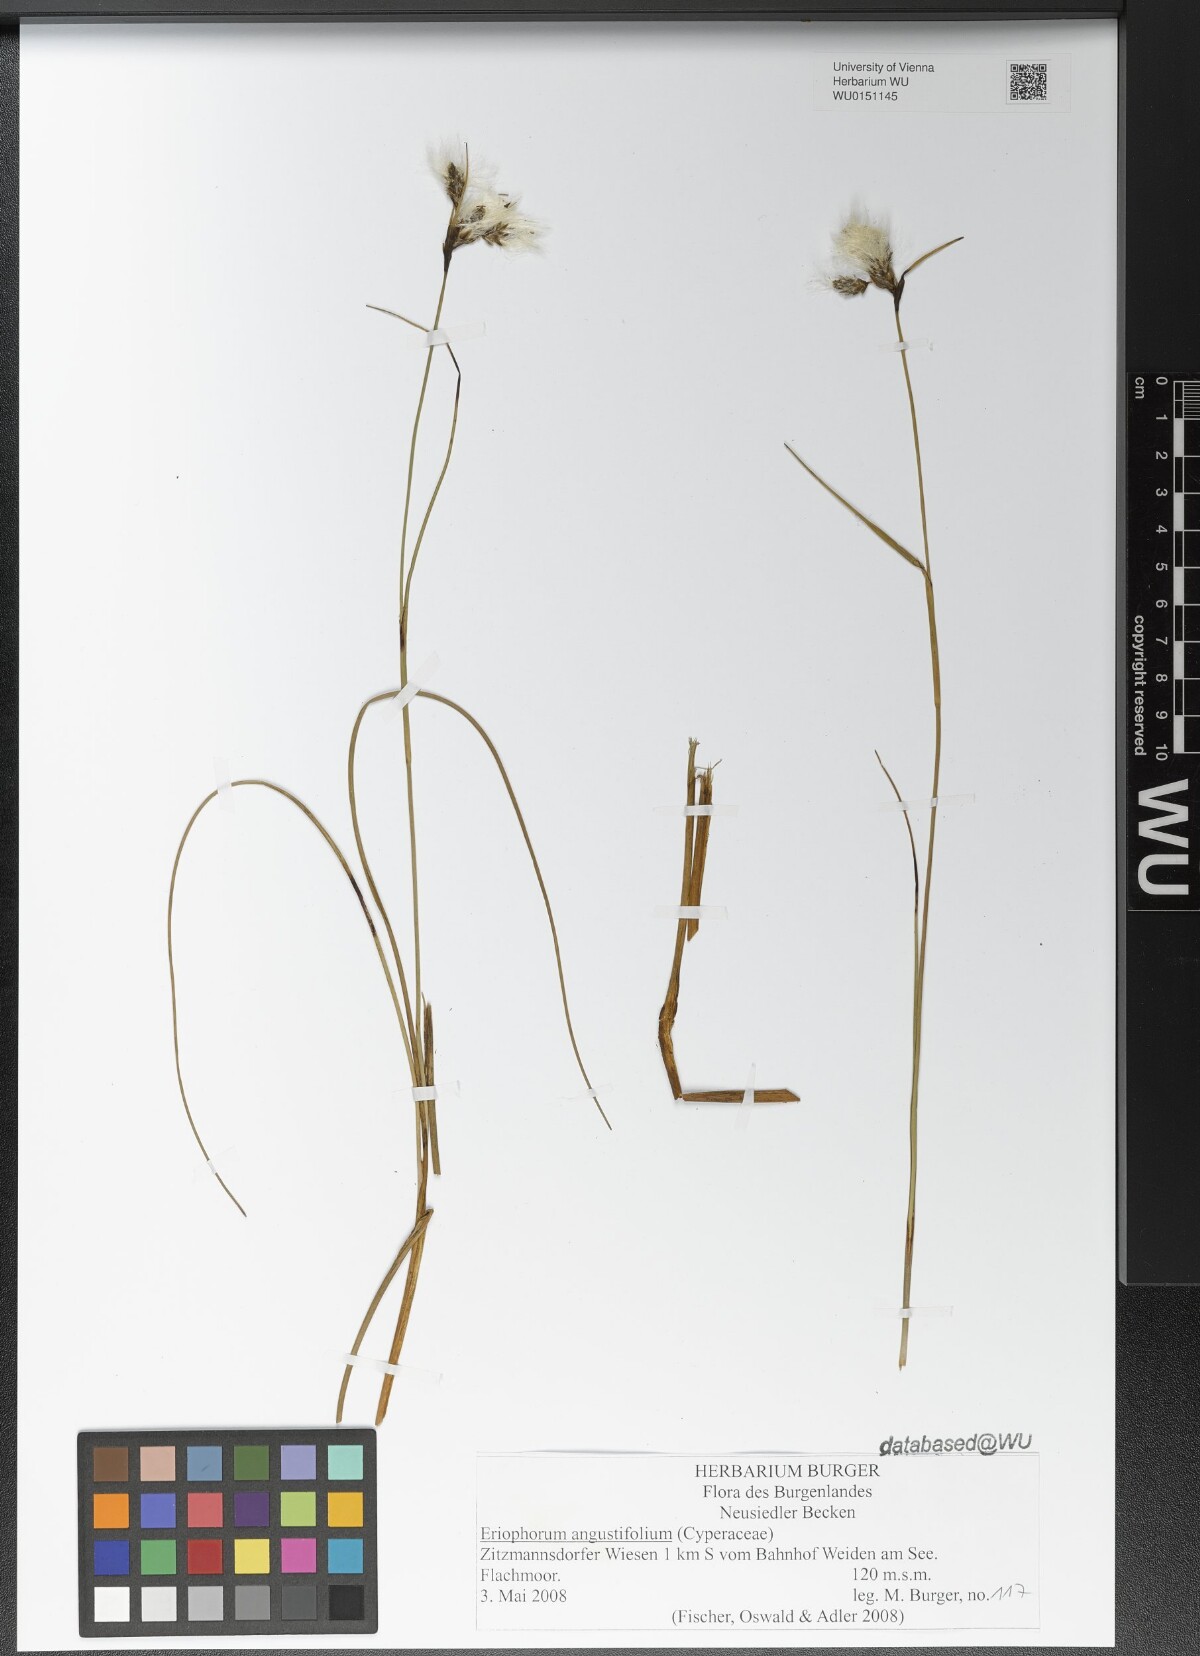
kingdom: Plantae
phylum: Tracheophyta
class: Liliopsida
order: Poales
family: Cyperaceae
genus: Eriophorum
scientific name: Eriophorum angustifolium
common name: Common cottongrass
